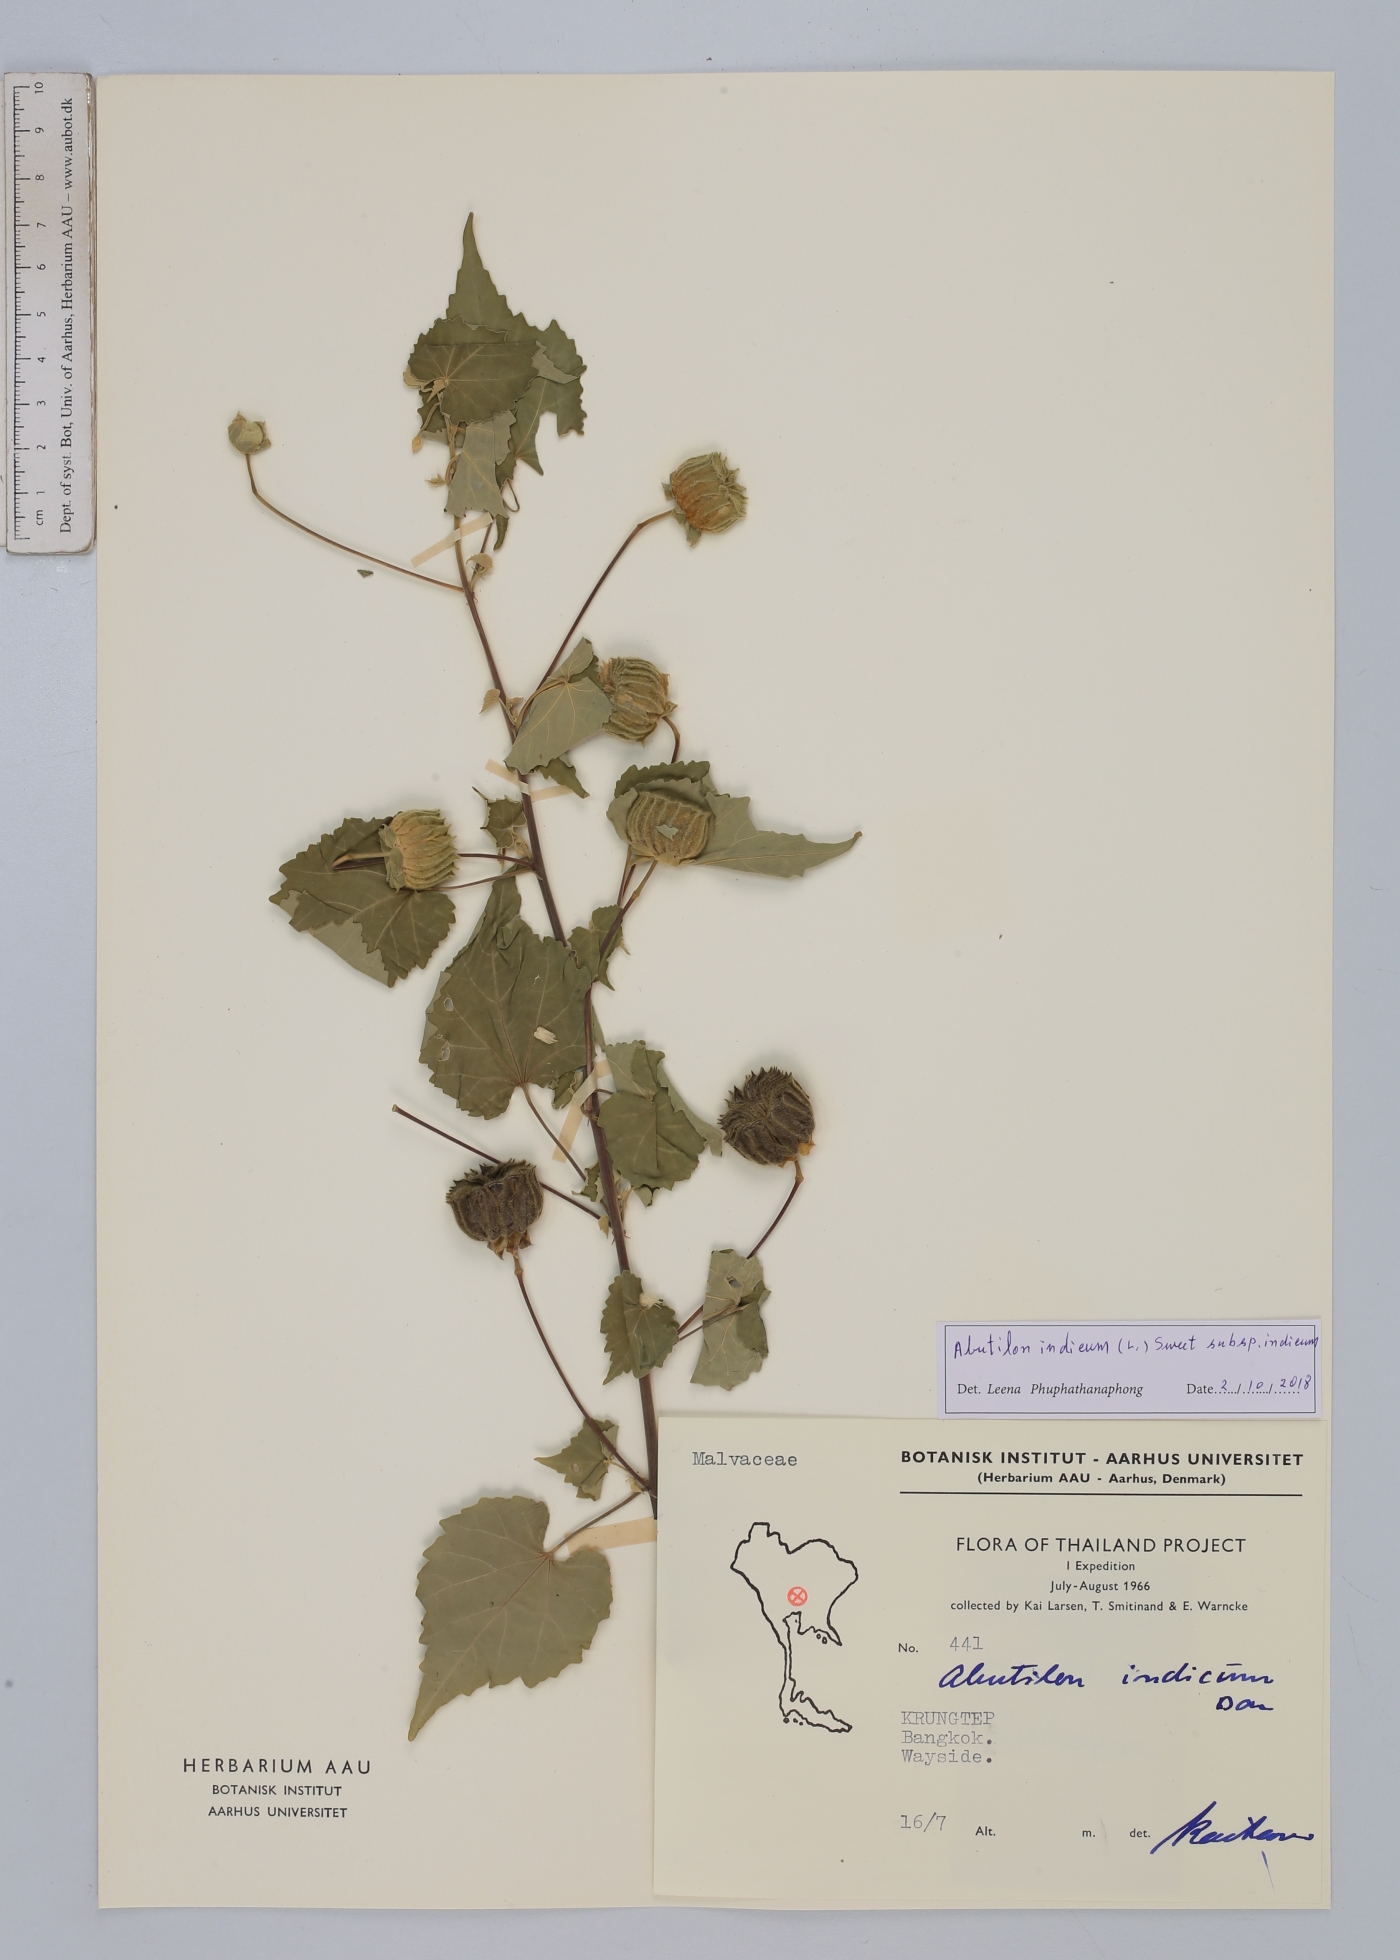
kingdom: Plantae
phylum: Tracheophyta
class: Magnoliopsida
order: Malvales
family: Malvaceae
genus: Abutilon
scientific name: Abutilon indicum
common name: Indian abutilon
